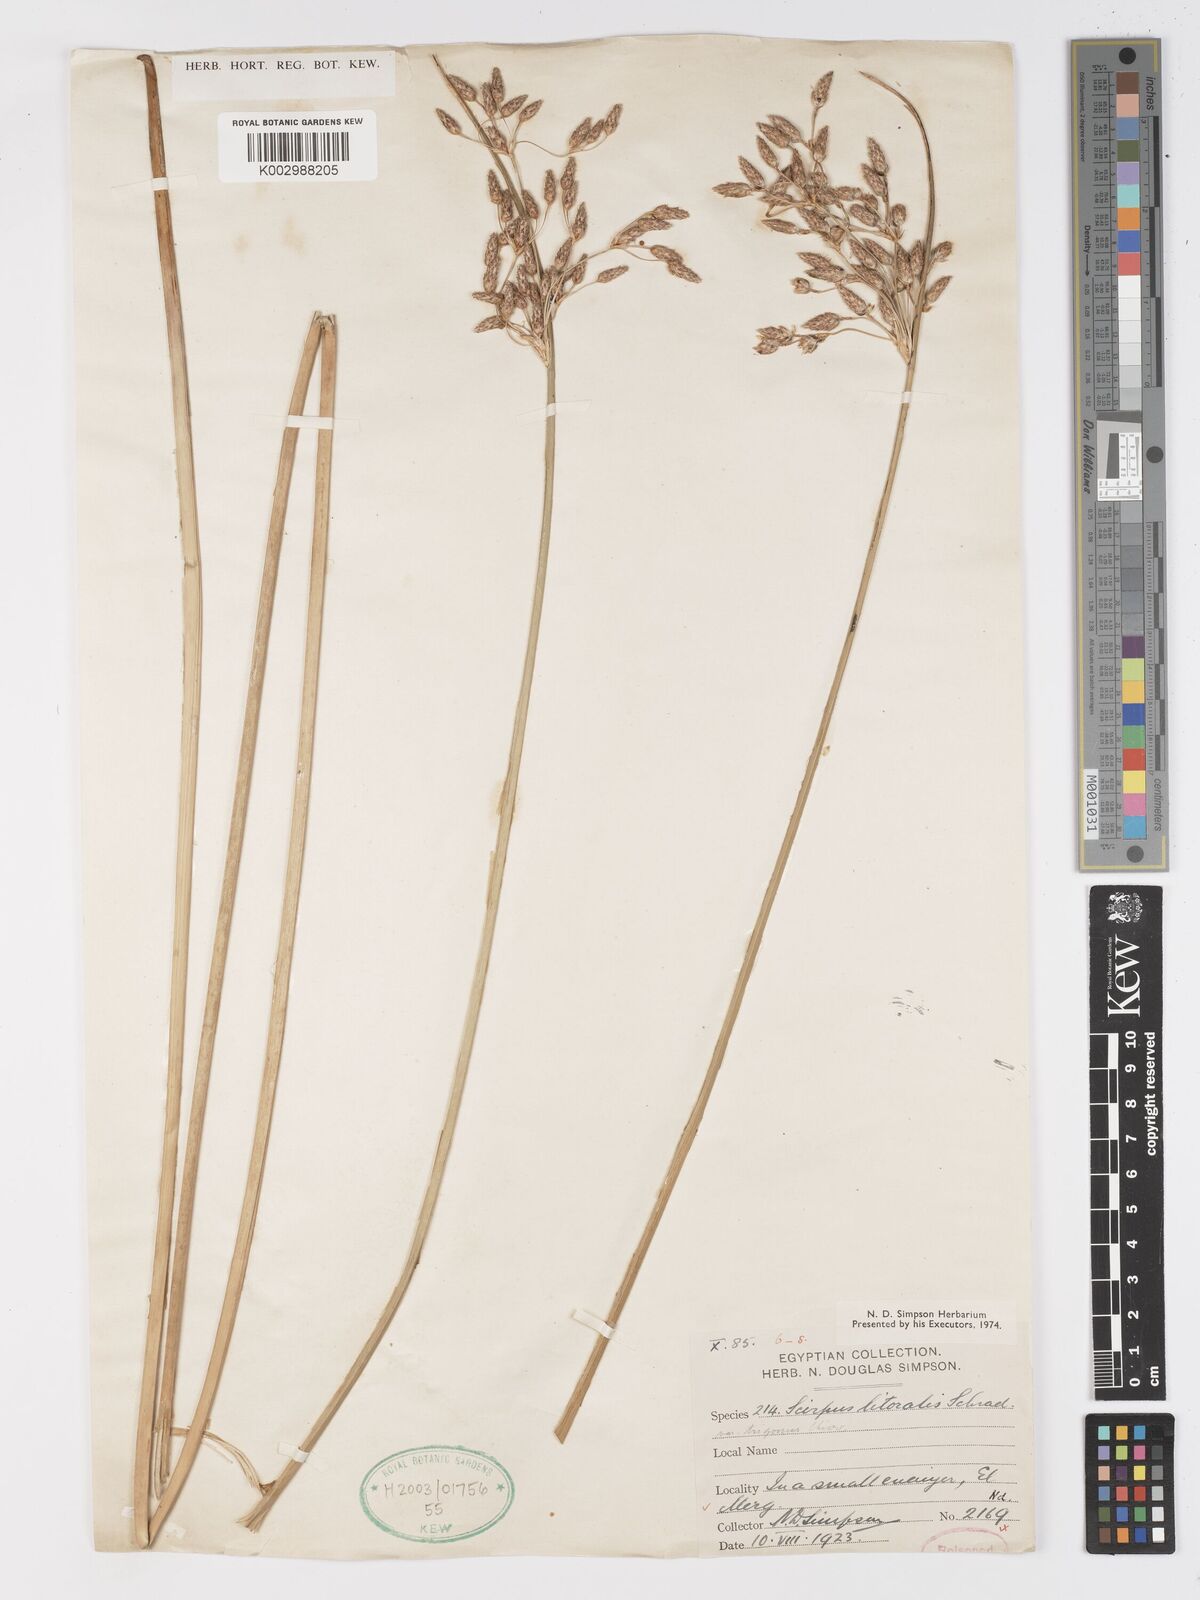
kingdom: Plantae
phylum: Tracheophyta
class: Liliopsida
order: Poales
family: Cyperaceae
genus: Schoenoplectus
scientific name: Schoenoplectus litoralis
